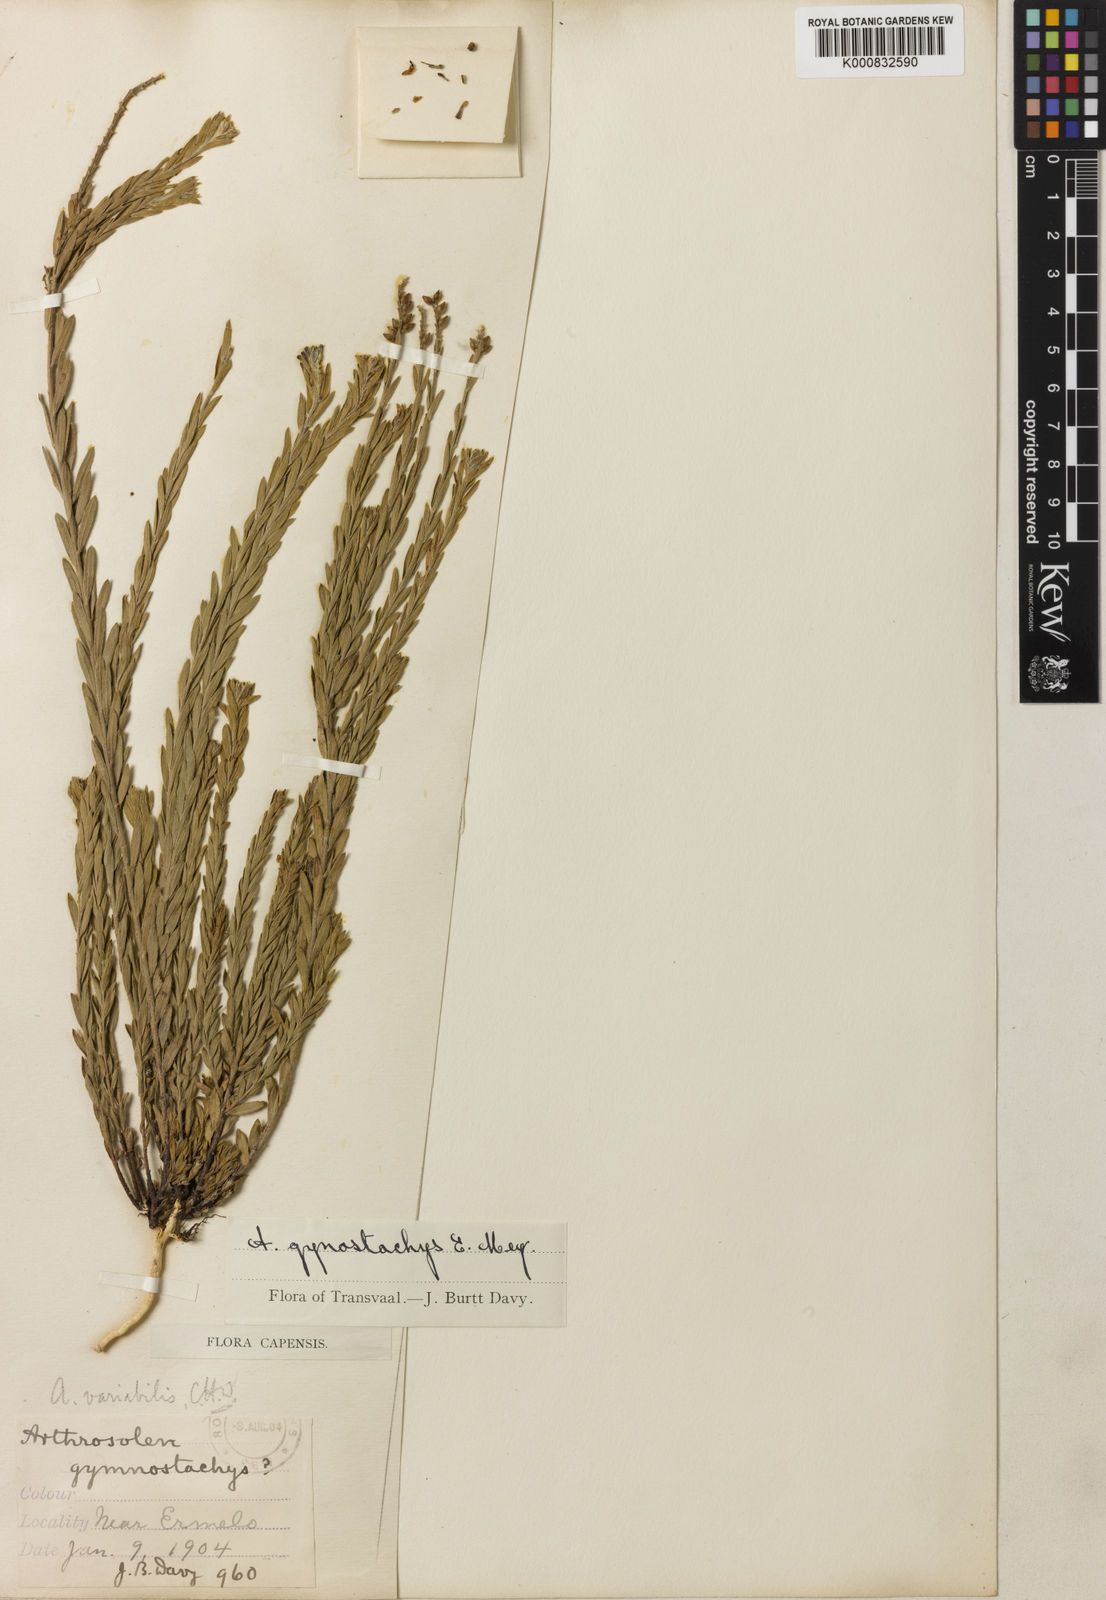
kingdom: Plantae
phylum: Tracheophyta
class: Magnoliopsida
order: Malvales
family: Thymelaeaceae
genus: Gnidia
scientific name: Gnidia variabilis
